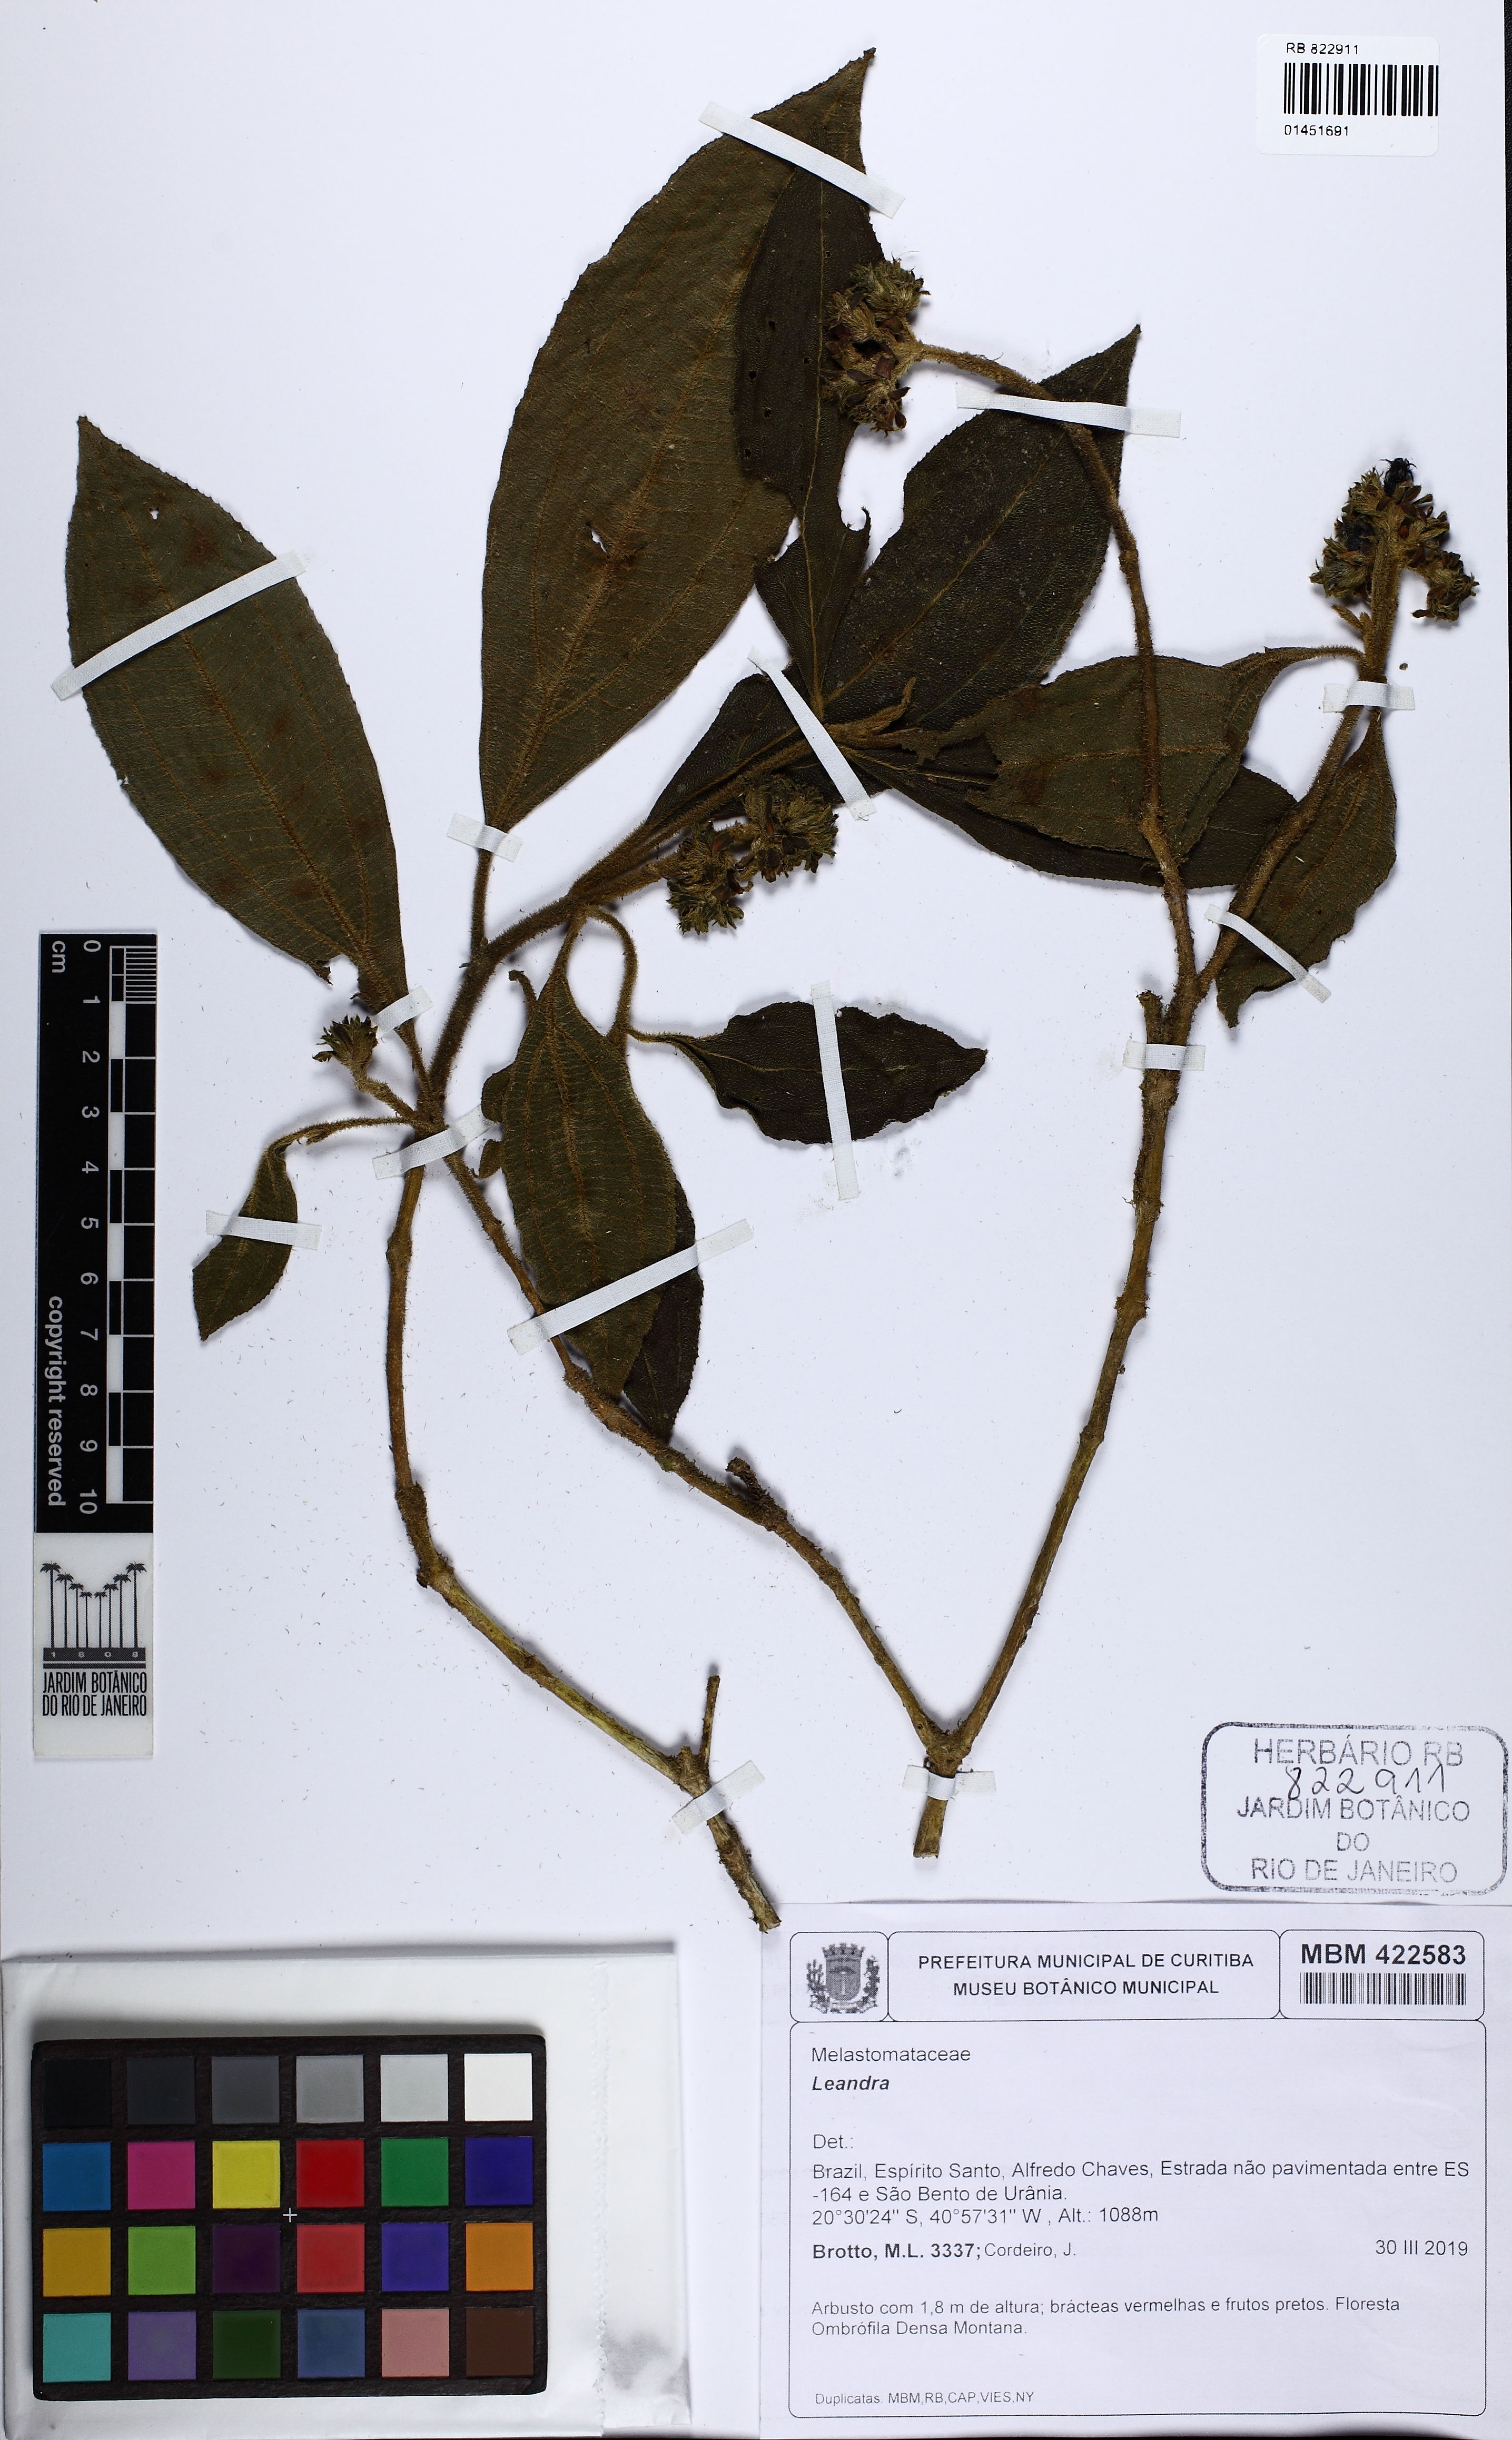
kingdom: Plantae
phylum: Tracheophyta
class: Magnoliopsida
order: Myrtales
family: Melastomataceae
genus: Miconia
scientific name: Miconia
